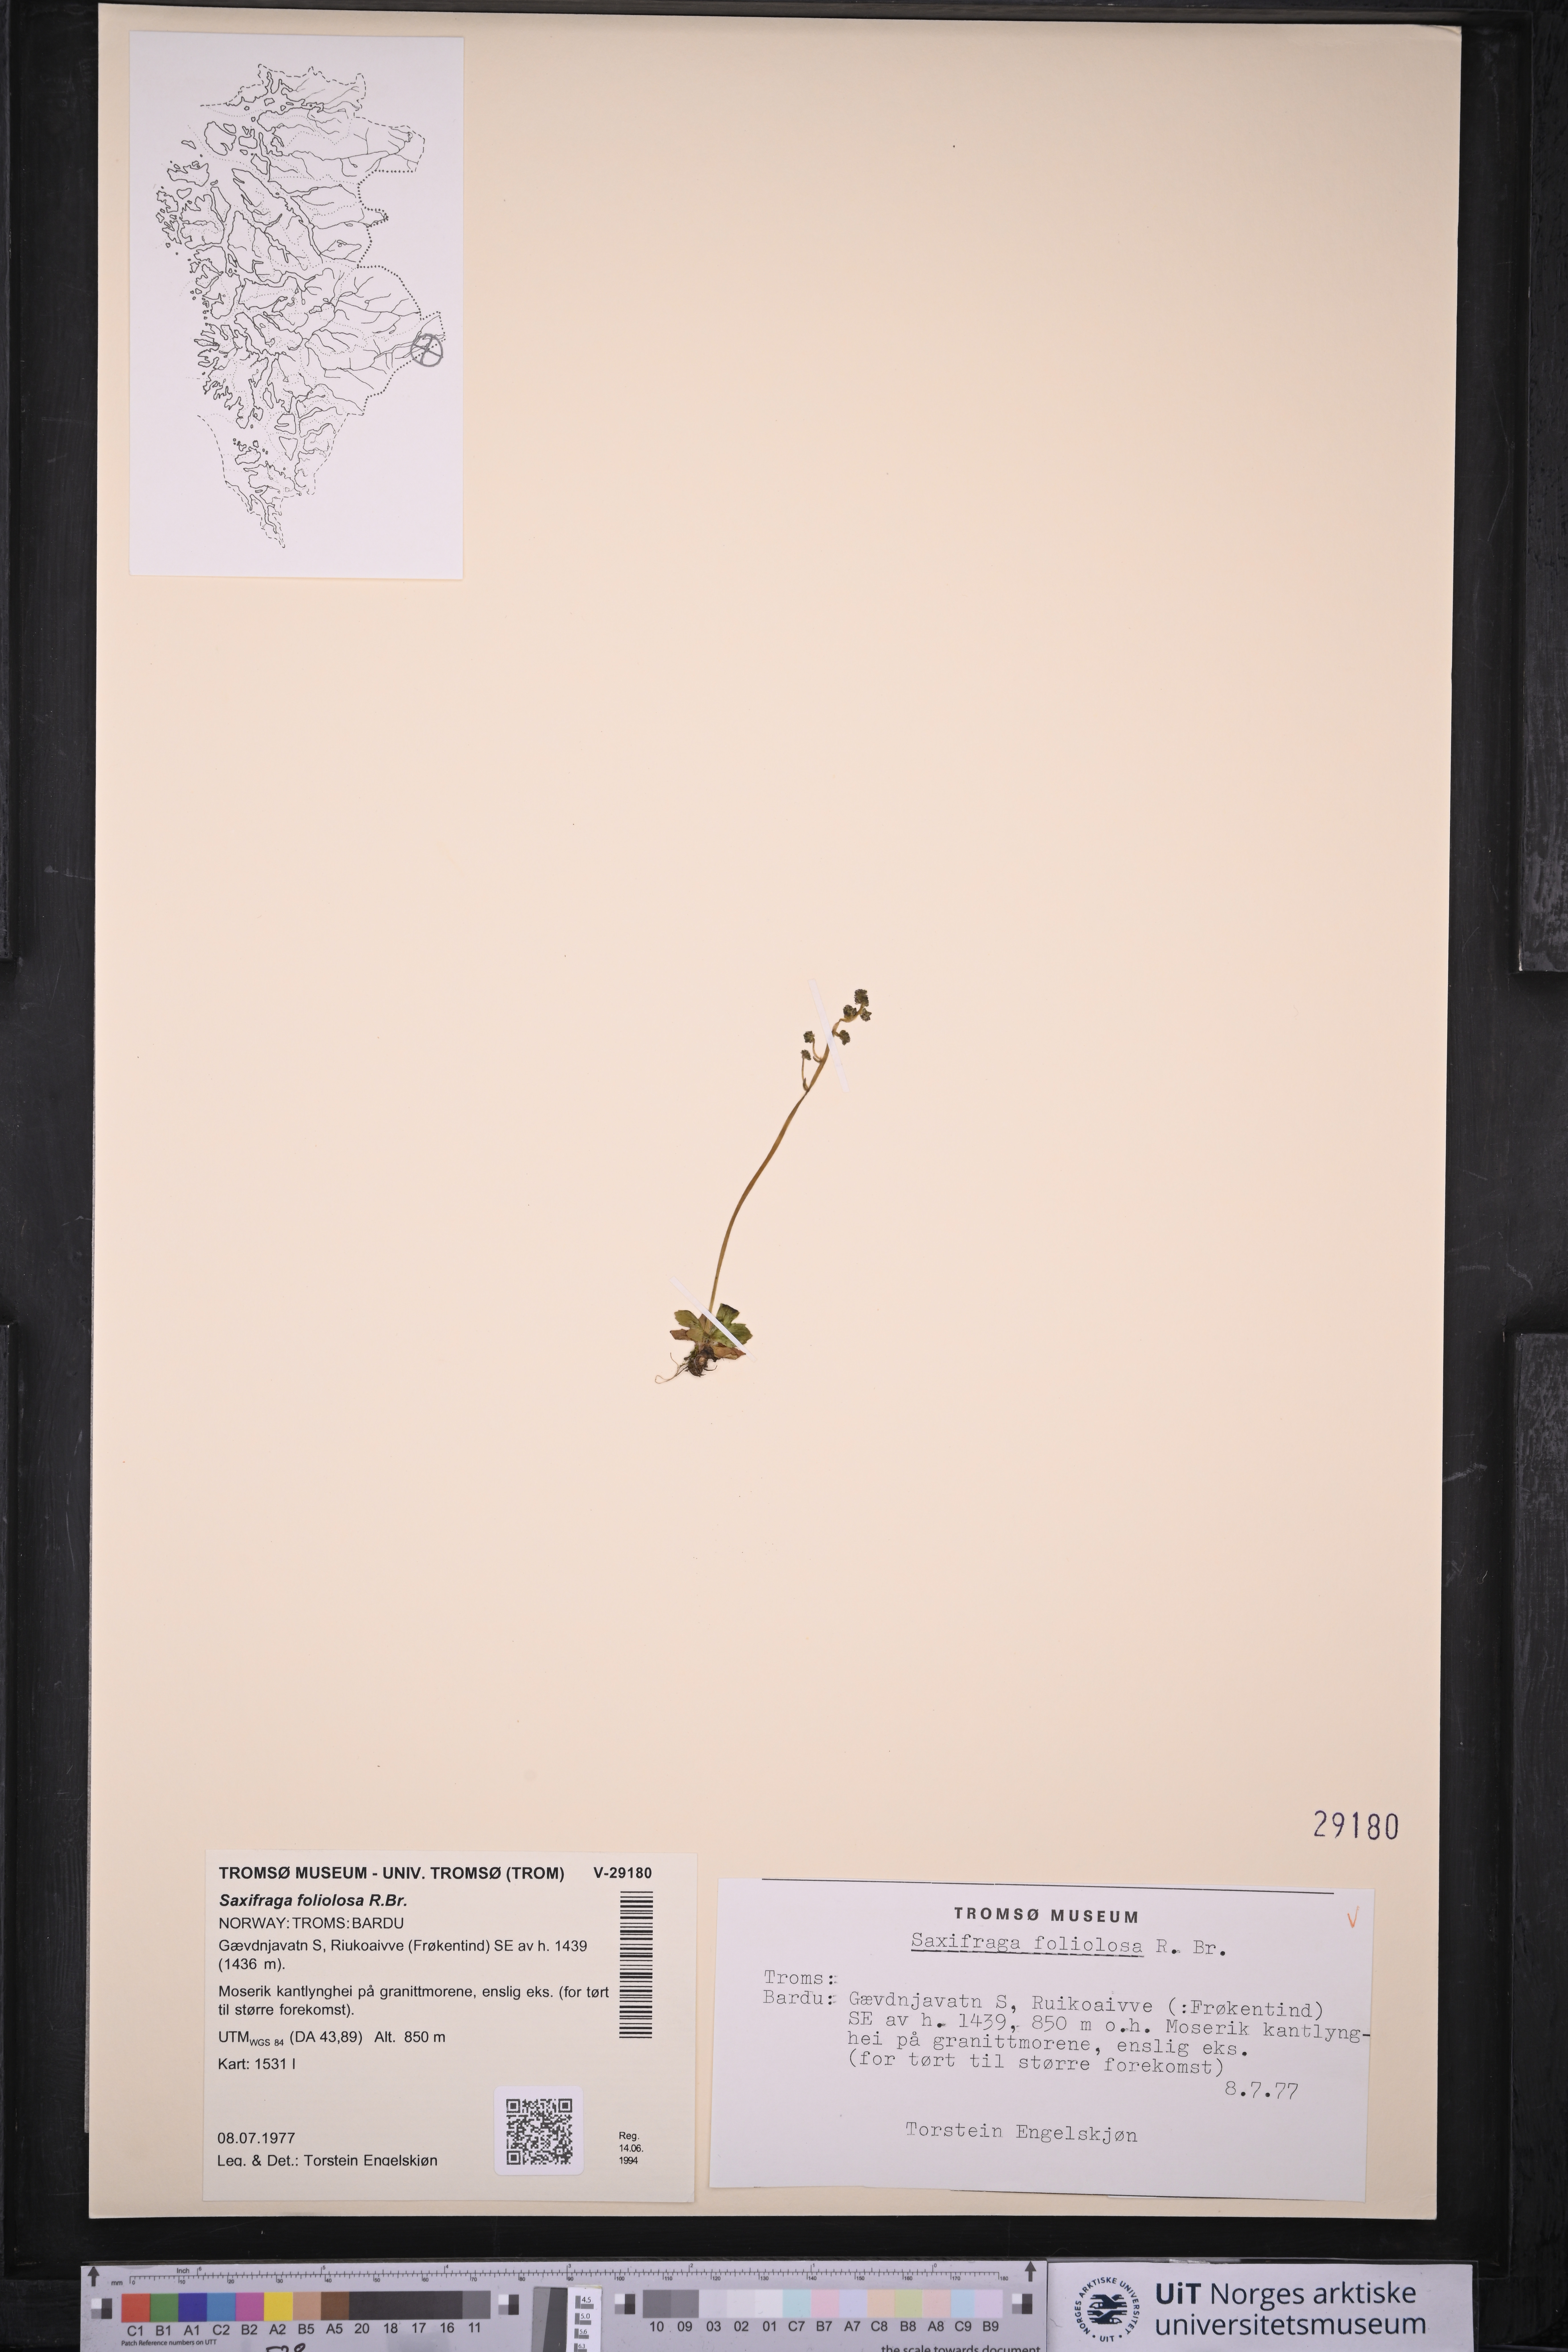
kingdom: Plantae
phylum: Tracheophyta
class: Magnoliopsida
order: Saxifragales
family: Saxifragaceae
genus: Micranthes
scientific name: Micranthes foliolosa
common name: Leafystem saxifrage
